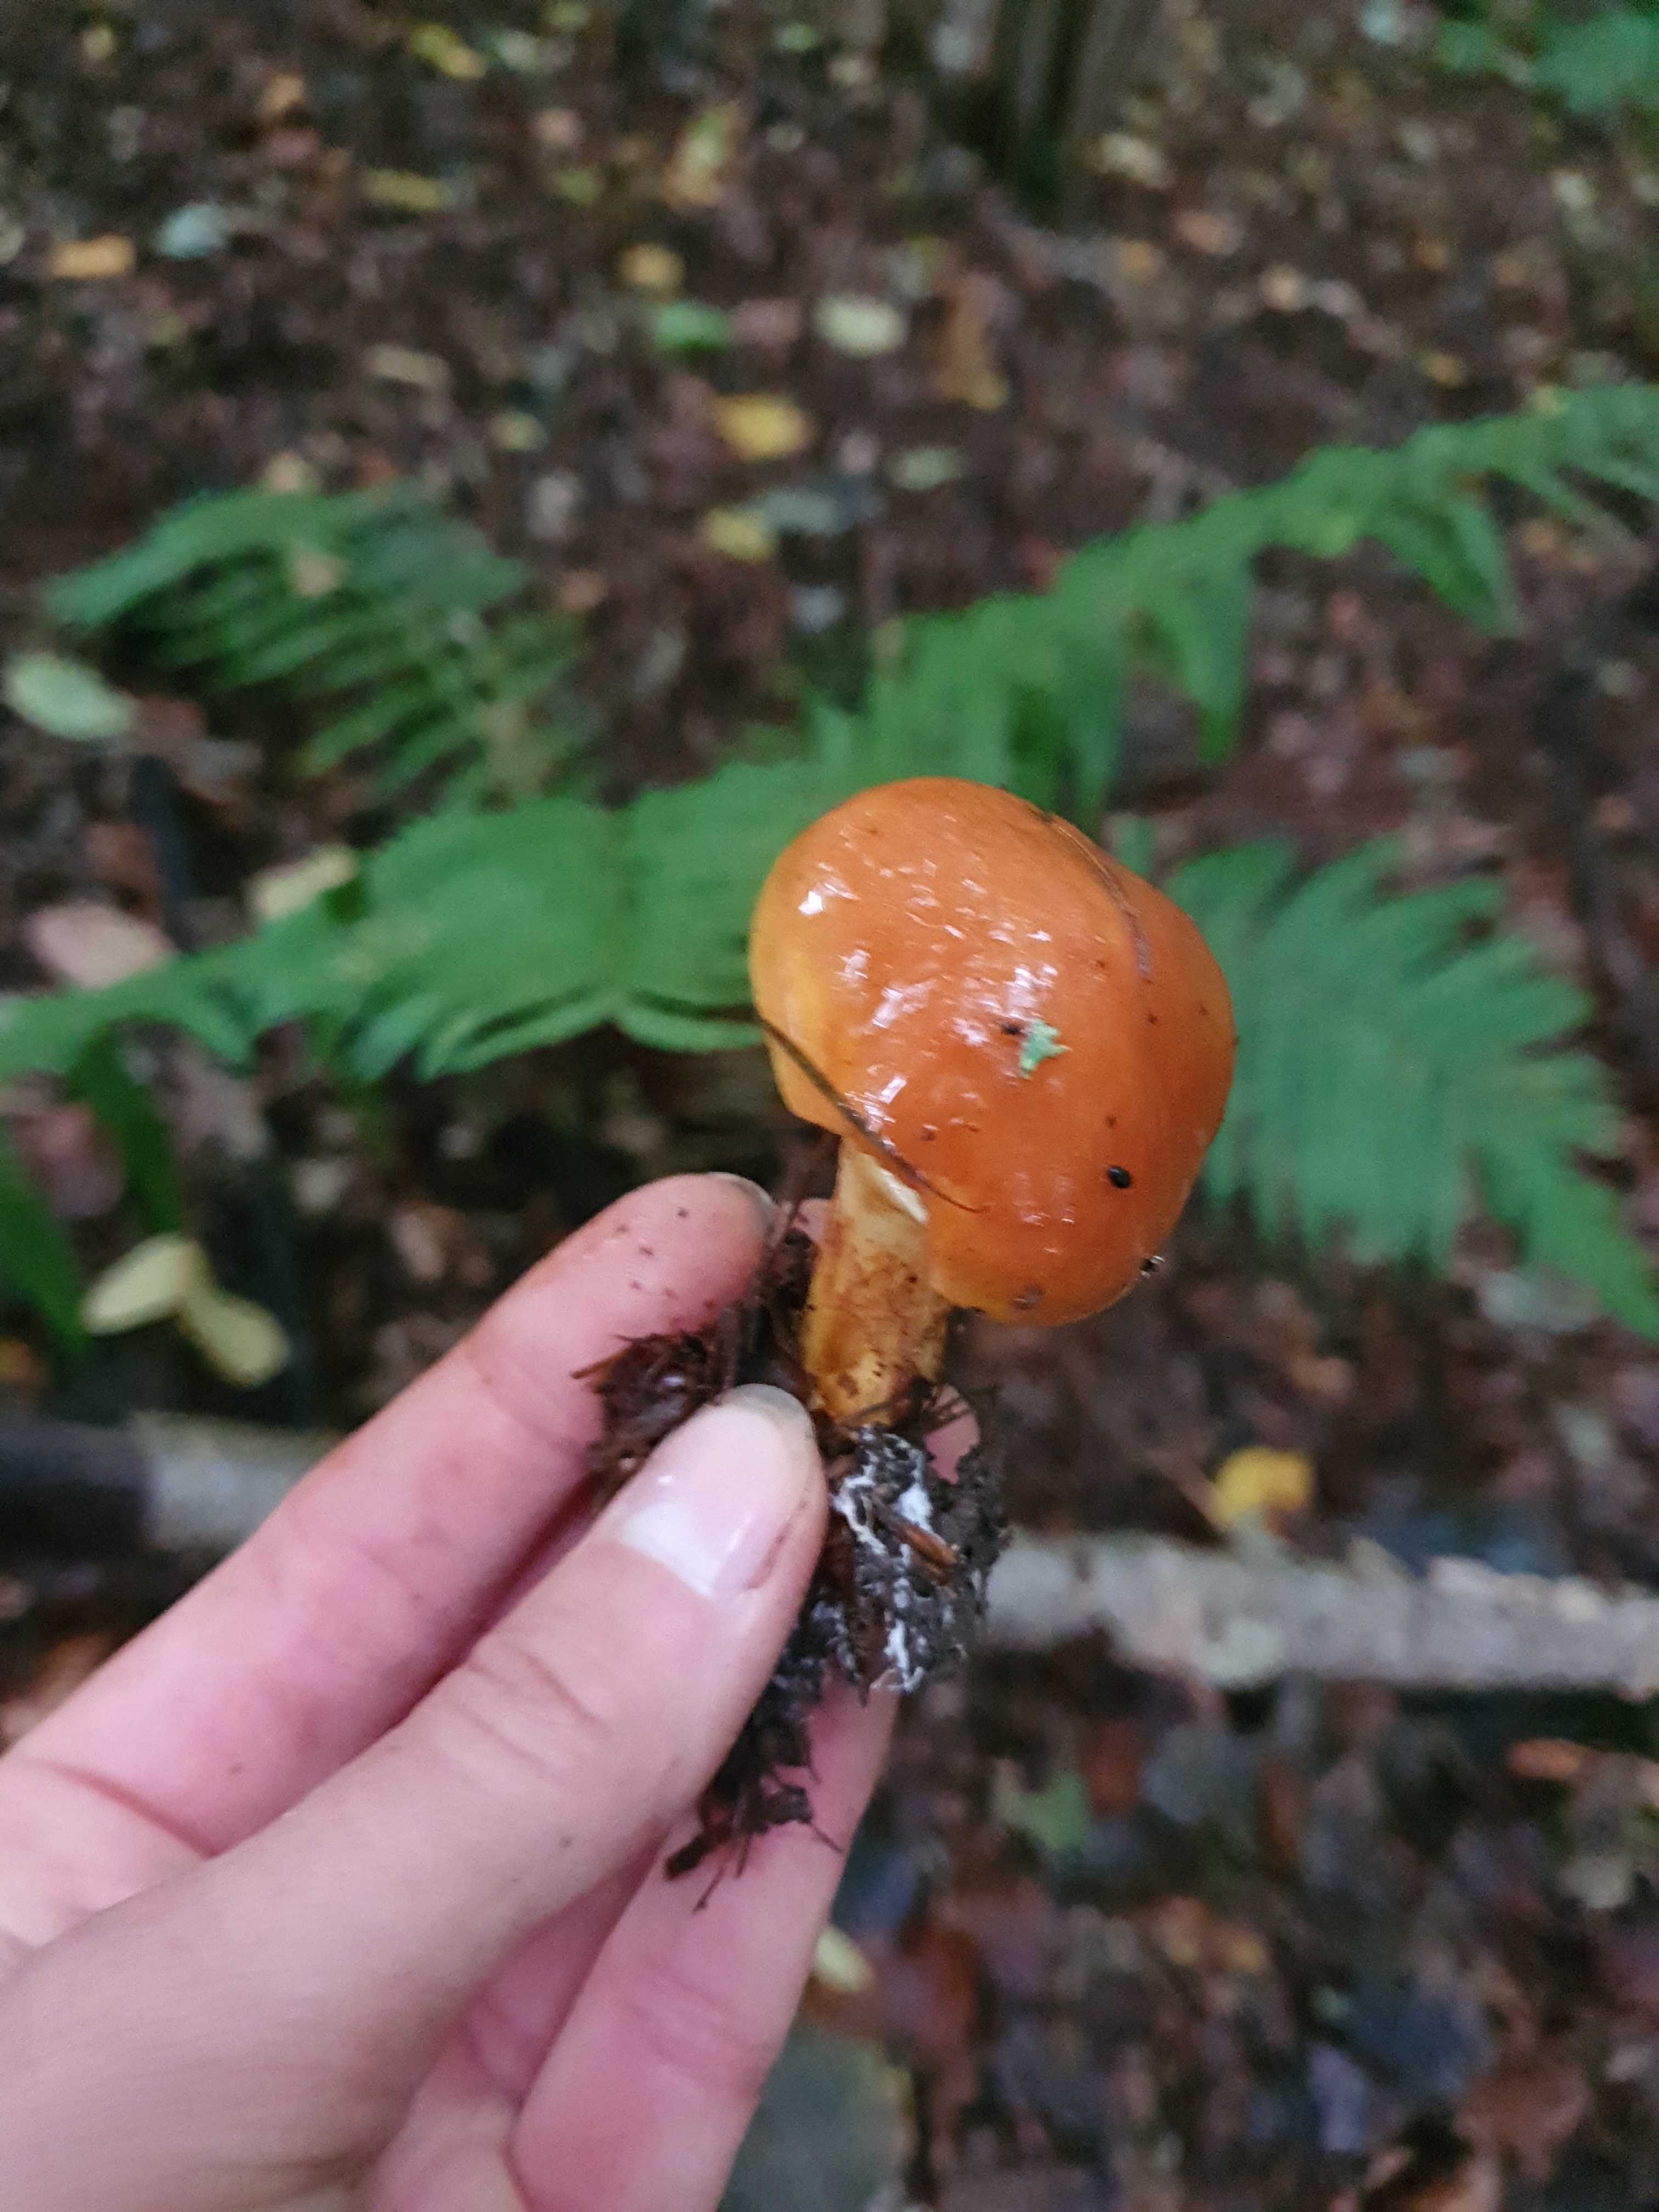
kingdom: Fungi
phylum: Basidiomycota
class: Agaricomycetes
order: Boletales
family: Suillaceae
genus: Suillus
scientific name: Suillus grevillei
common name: lærke-slimrørhat
